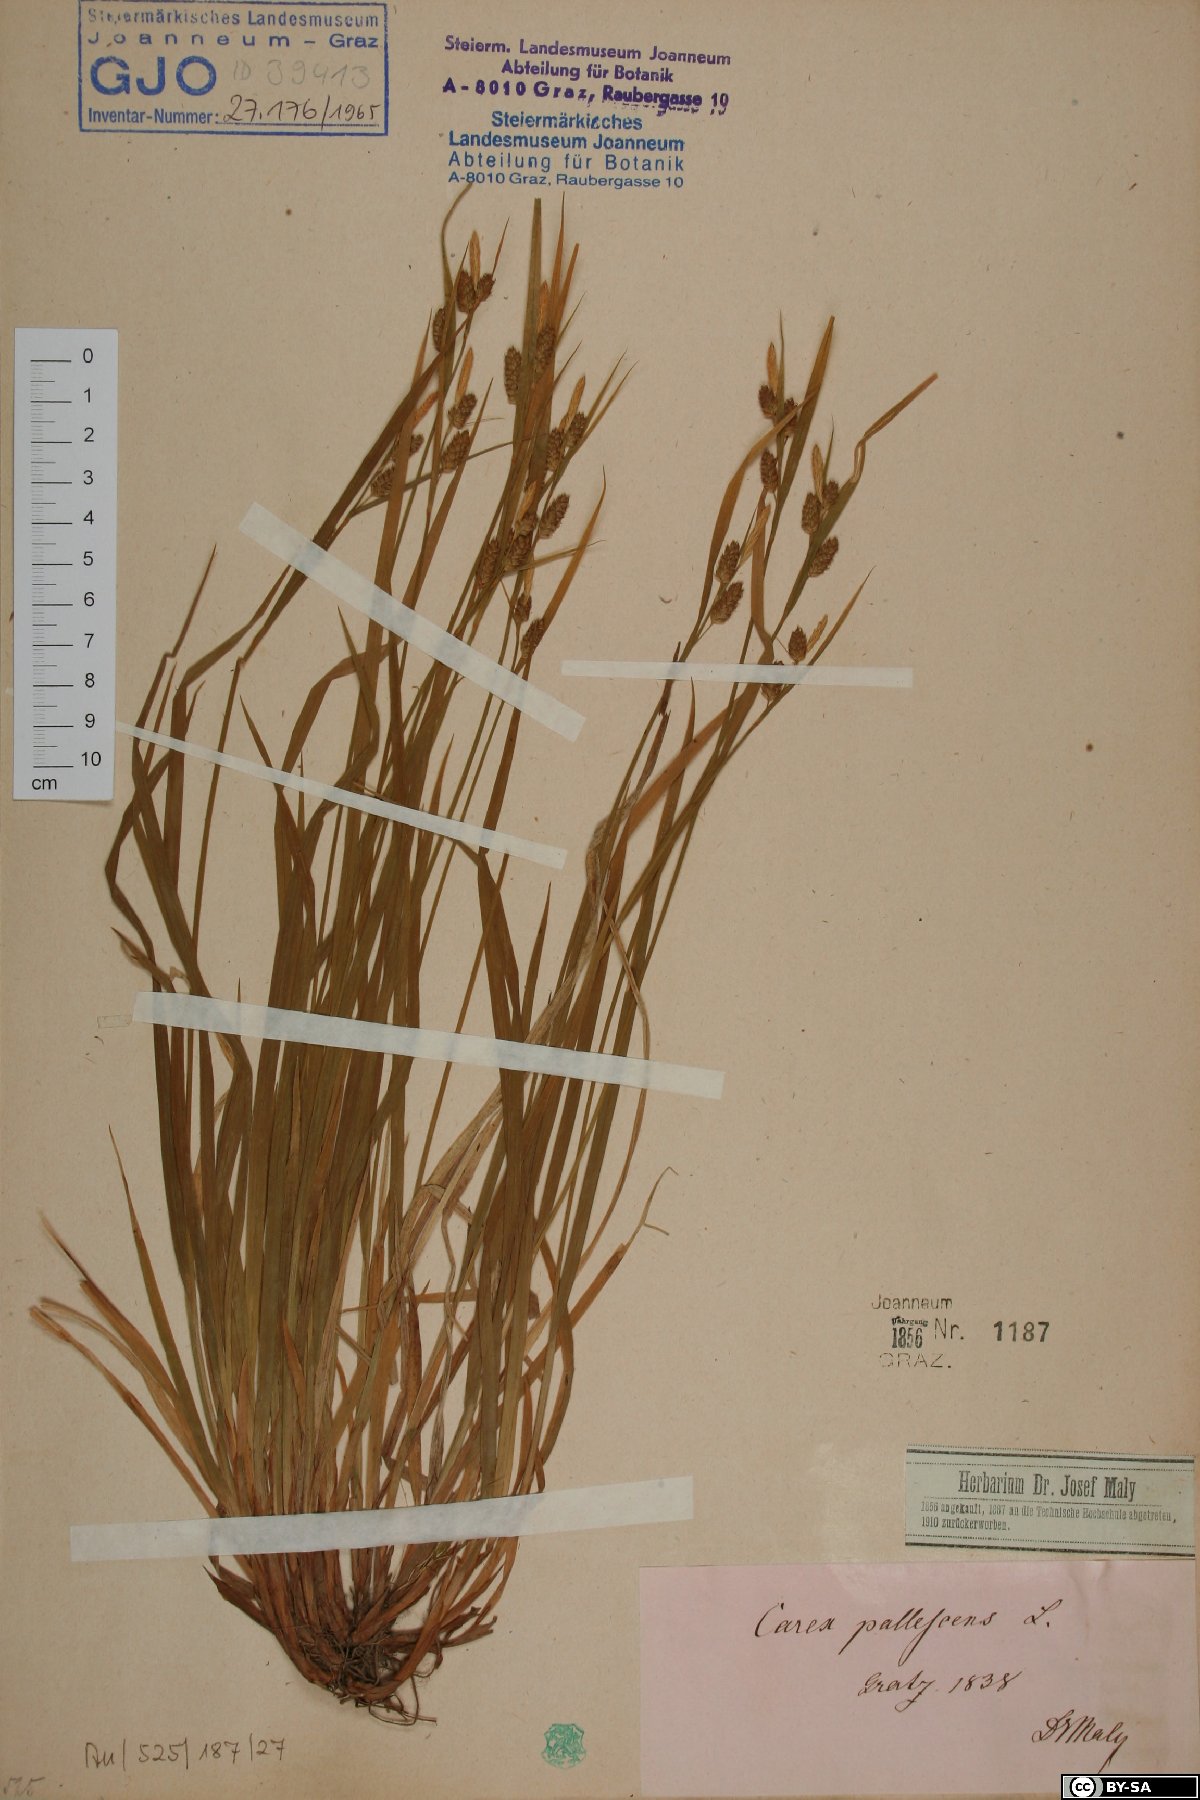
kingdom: Plantae
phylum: Tracheophyta
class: Liliopsida
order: Poales
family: Cyperaceae
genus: Carex
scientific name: Carex pallescens
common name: Pale sedge
